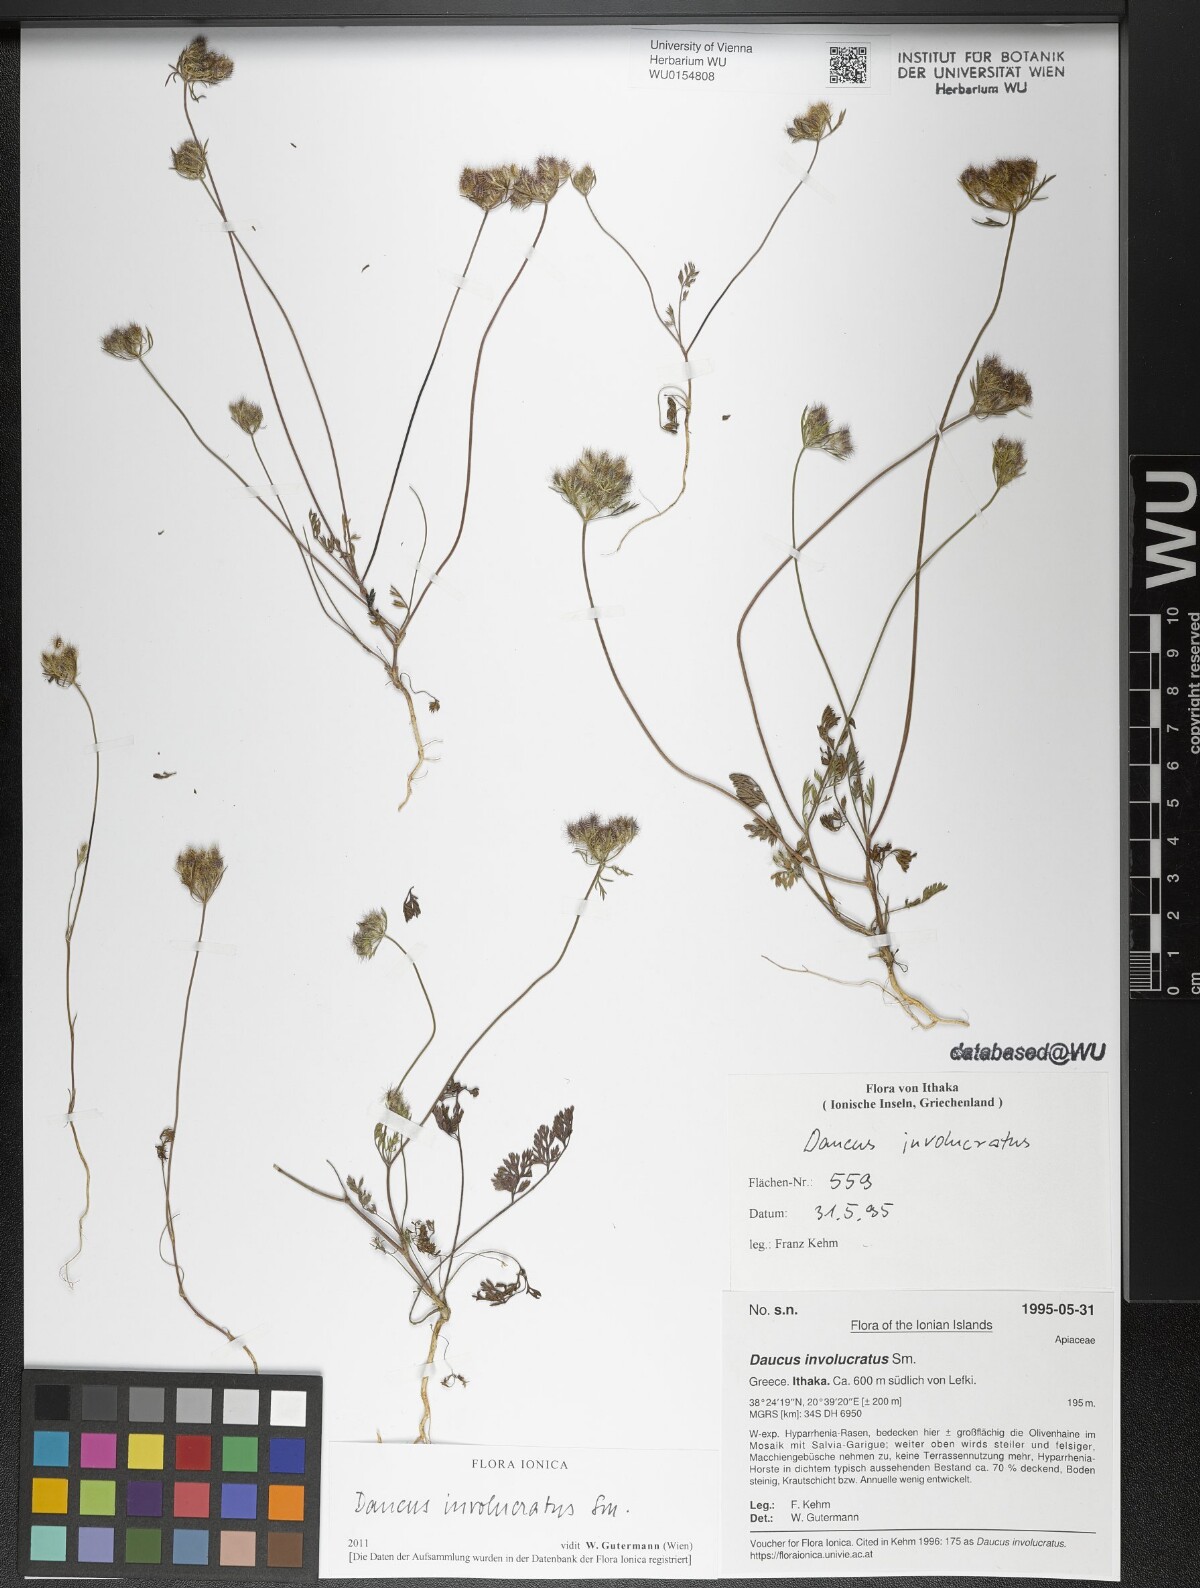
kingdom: Plantae
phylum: Tracheophyta
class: Magnoliopsida
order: Apiales
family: Apiaceae
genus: Daucus
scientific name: Daucus involucratus
